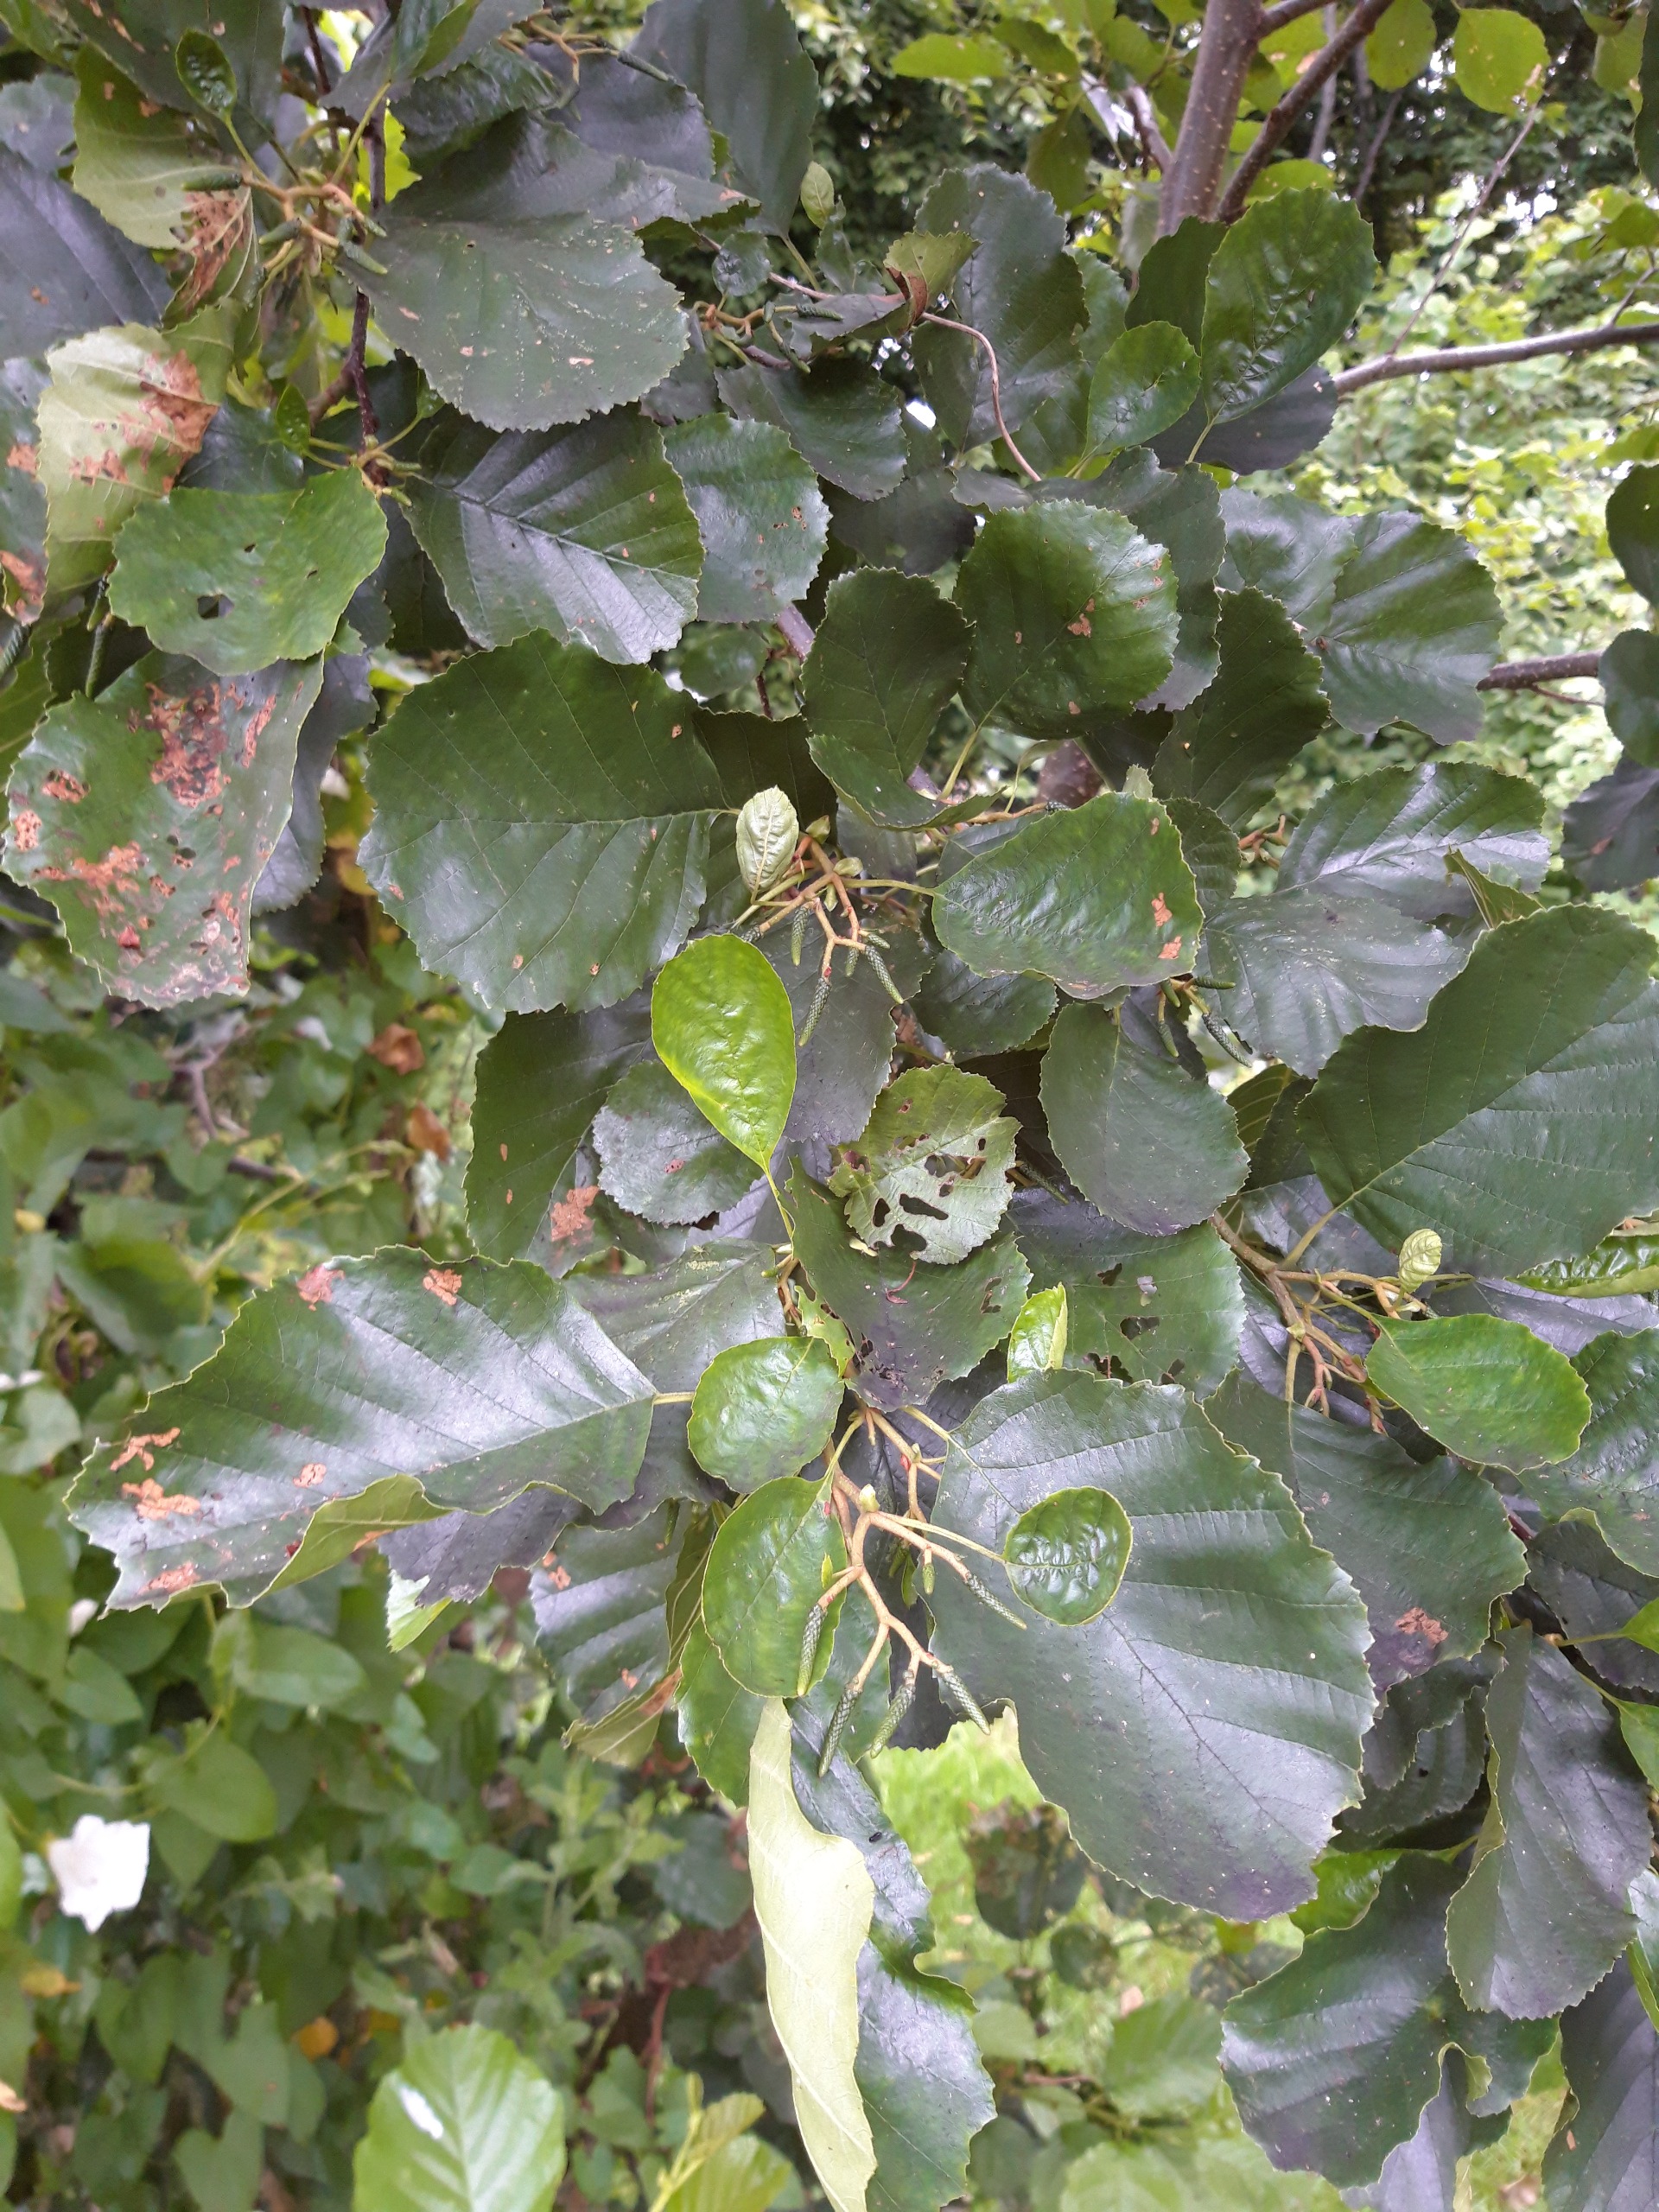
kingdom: Plantae
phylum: Tracheophyta
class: Magnoliopsida
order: Fagales
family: Betulaceae
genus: Alnus
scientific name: Alnus glutinosa
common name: Rød-el
